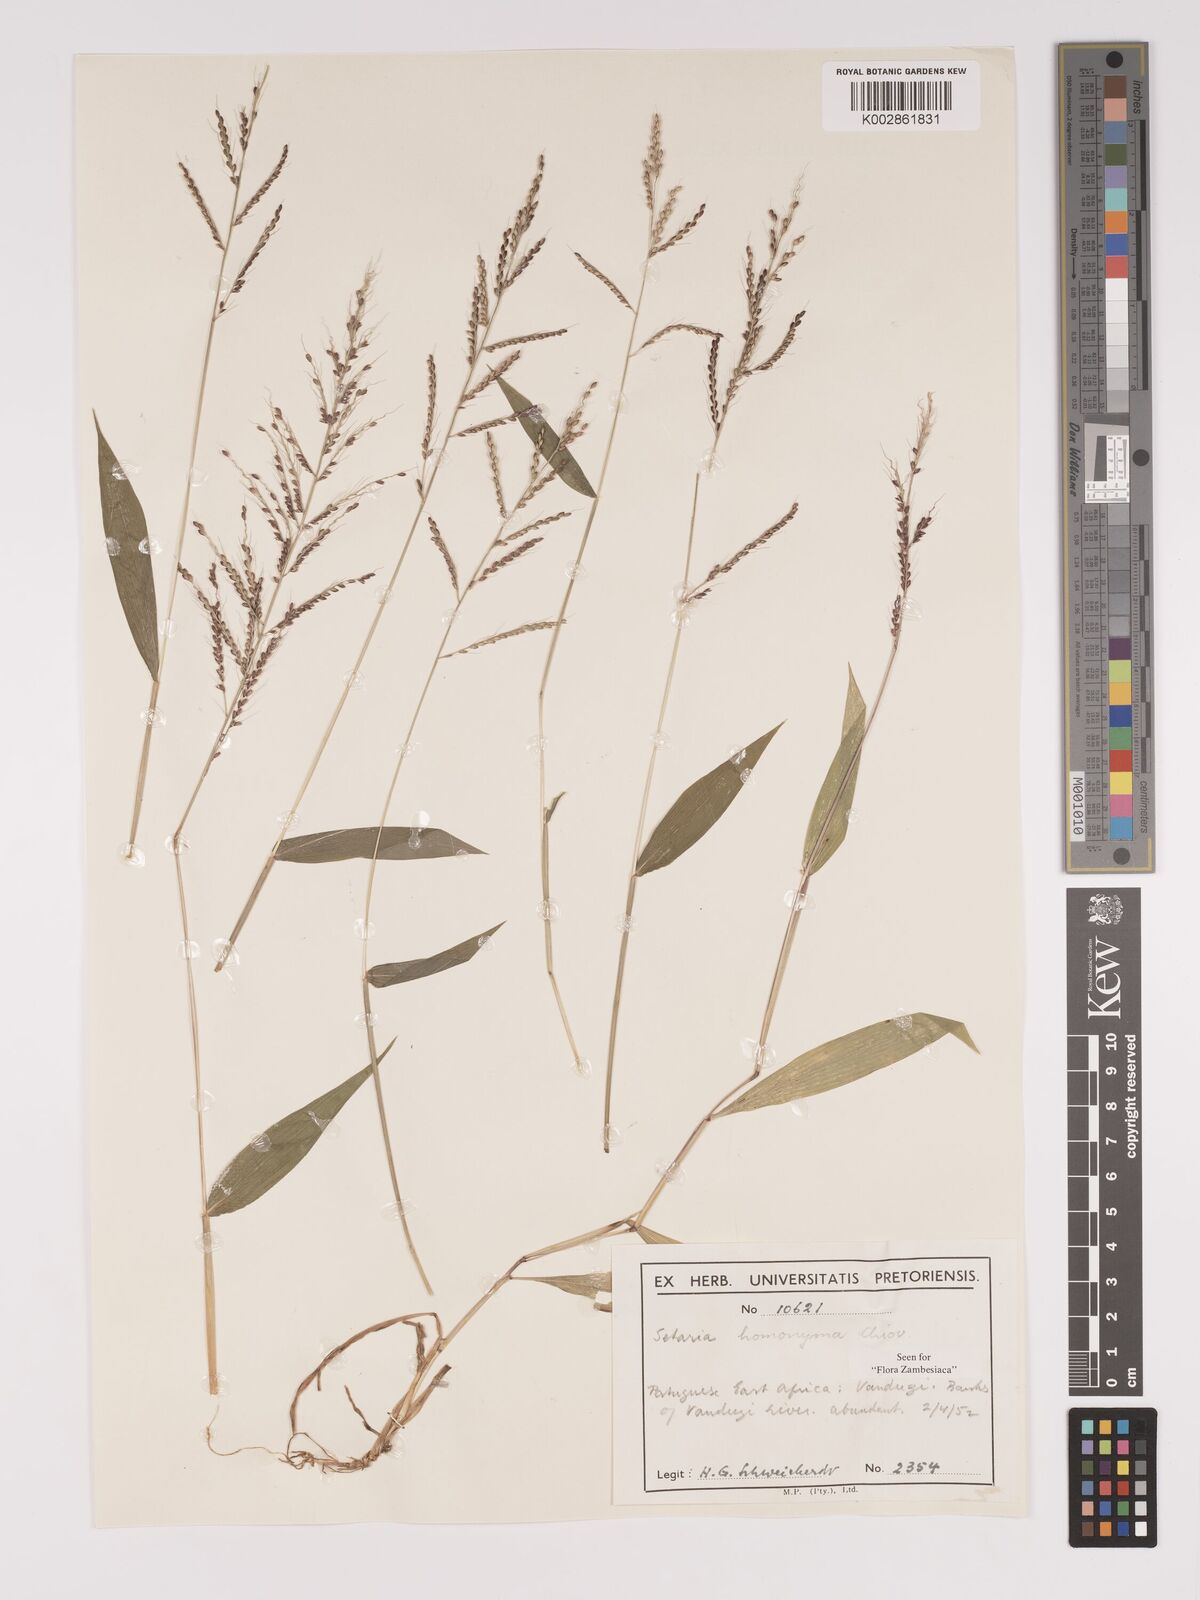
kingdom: Plantae
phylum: Tracheophyta
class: Liliopsida
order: Poales
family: Poaceae
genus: Setaria
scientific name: Setaria homonyma
